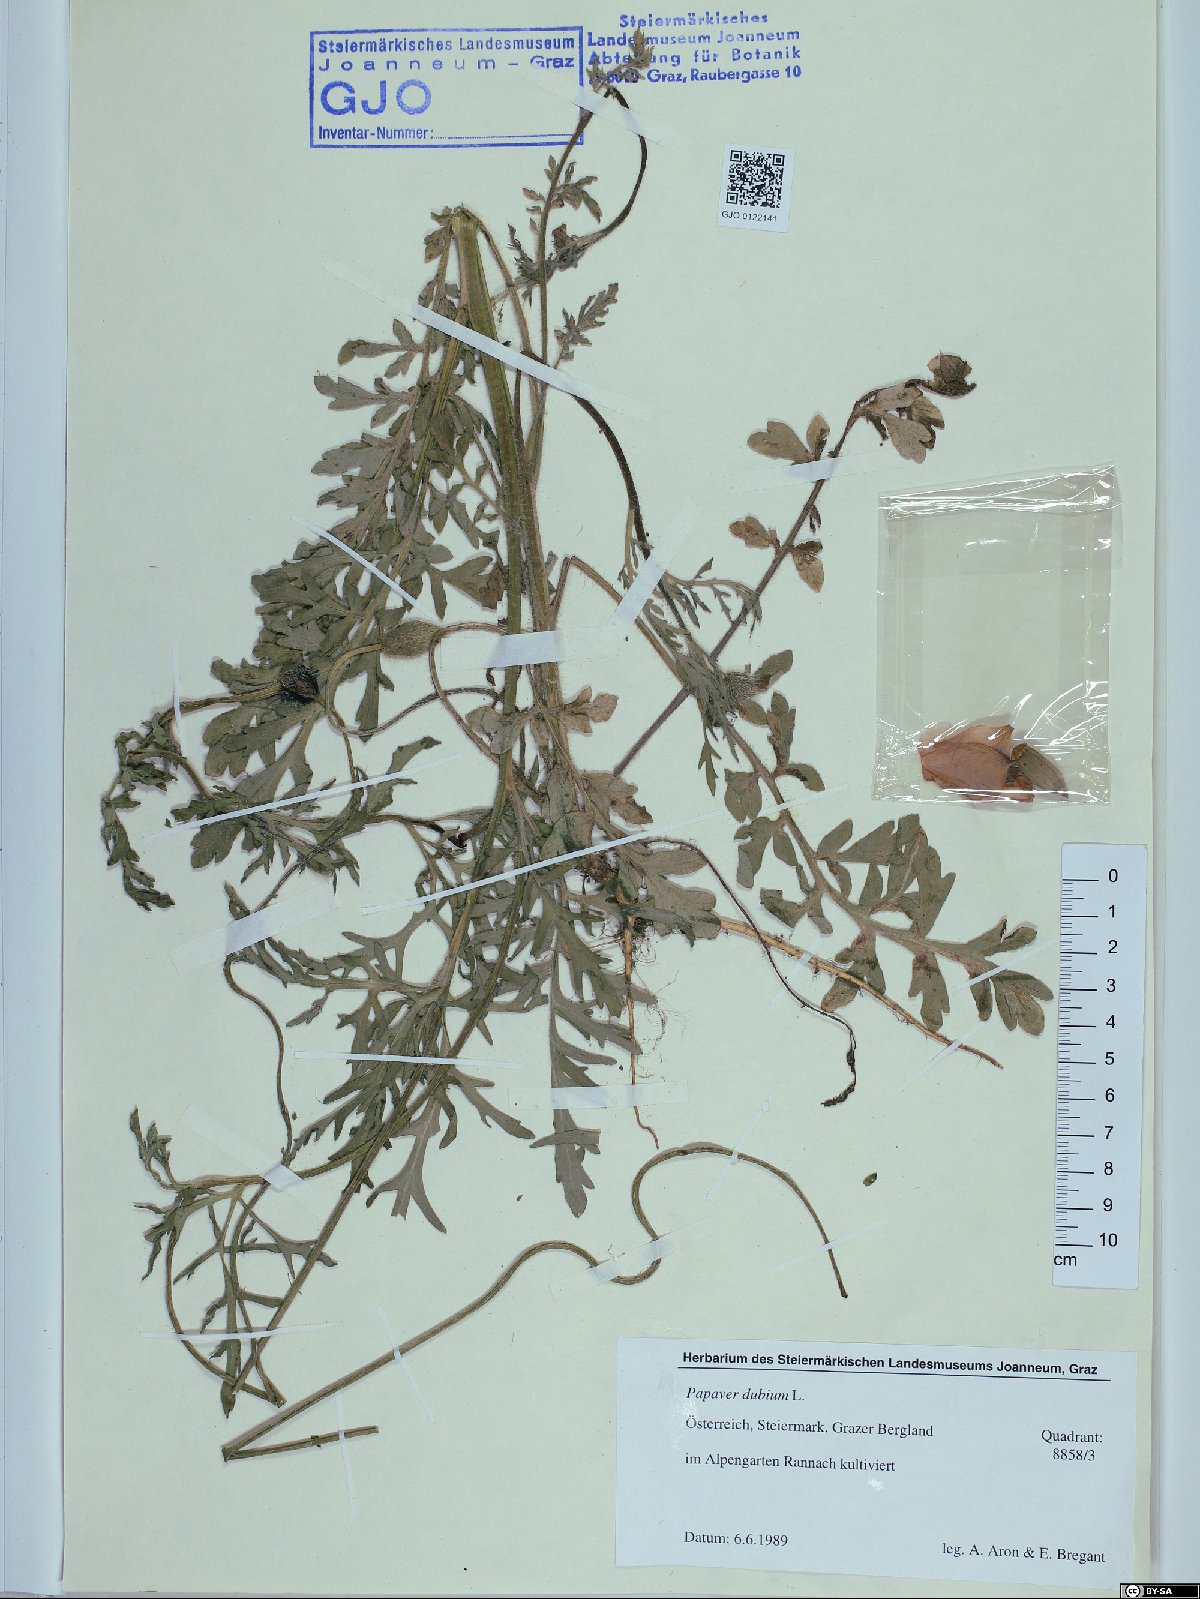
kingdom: Plantae
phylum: Tracheophyta
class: Magnoliopsida
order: Ranunculales
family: Papaveraceae
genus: Papaver
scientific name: Papaver dubium
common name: Long-headed poppy
